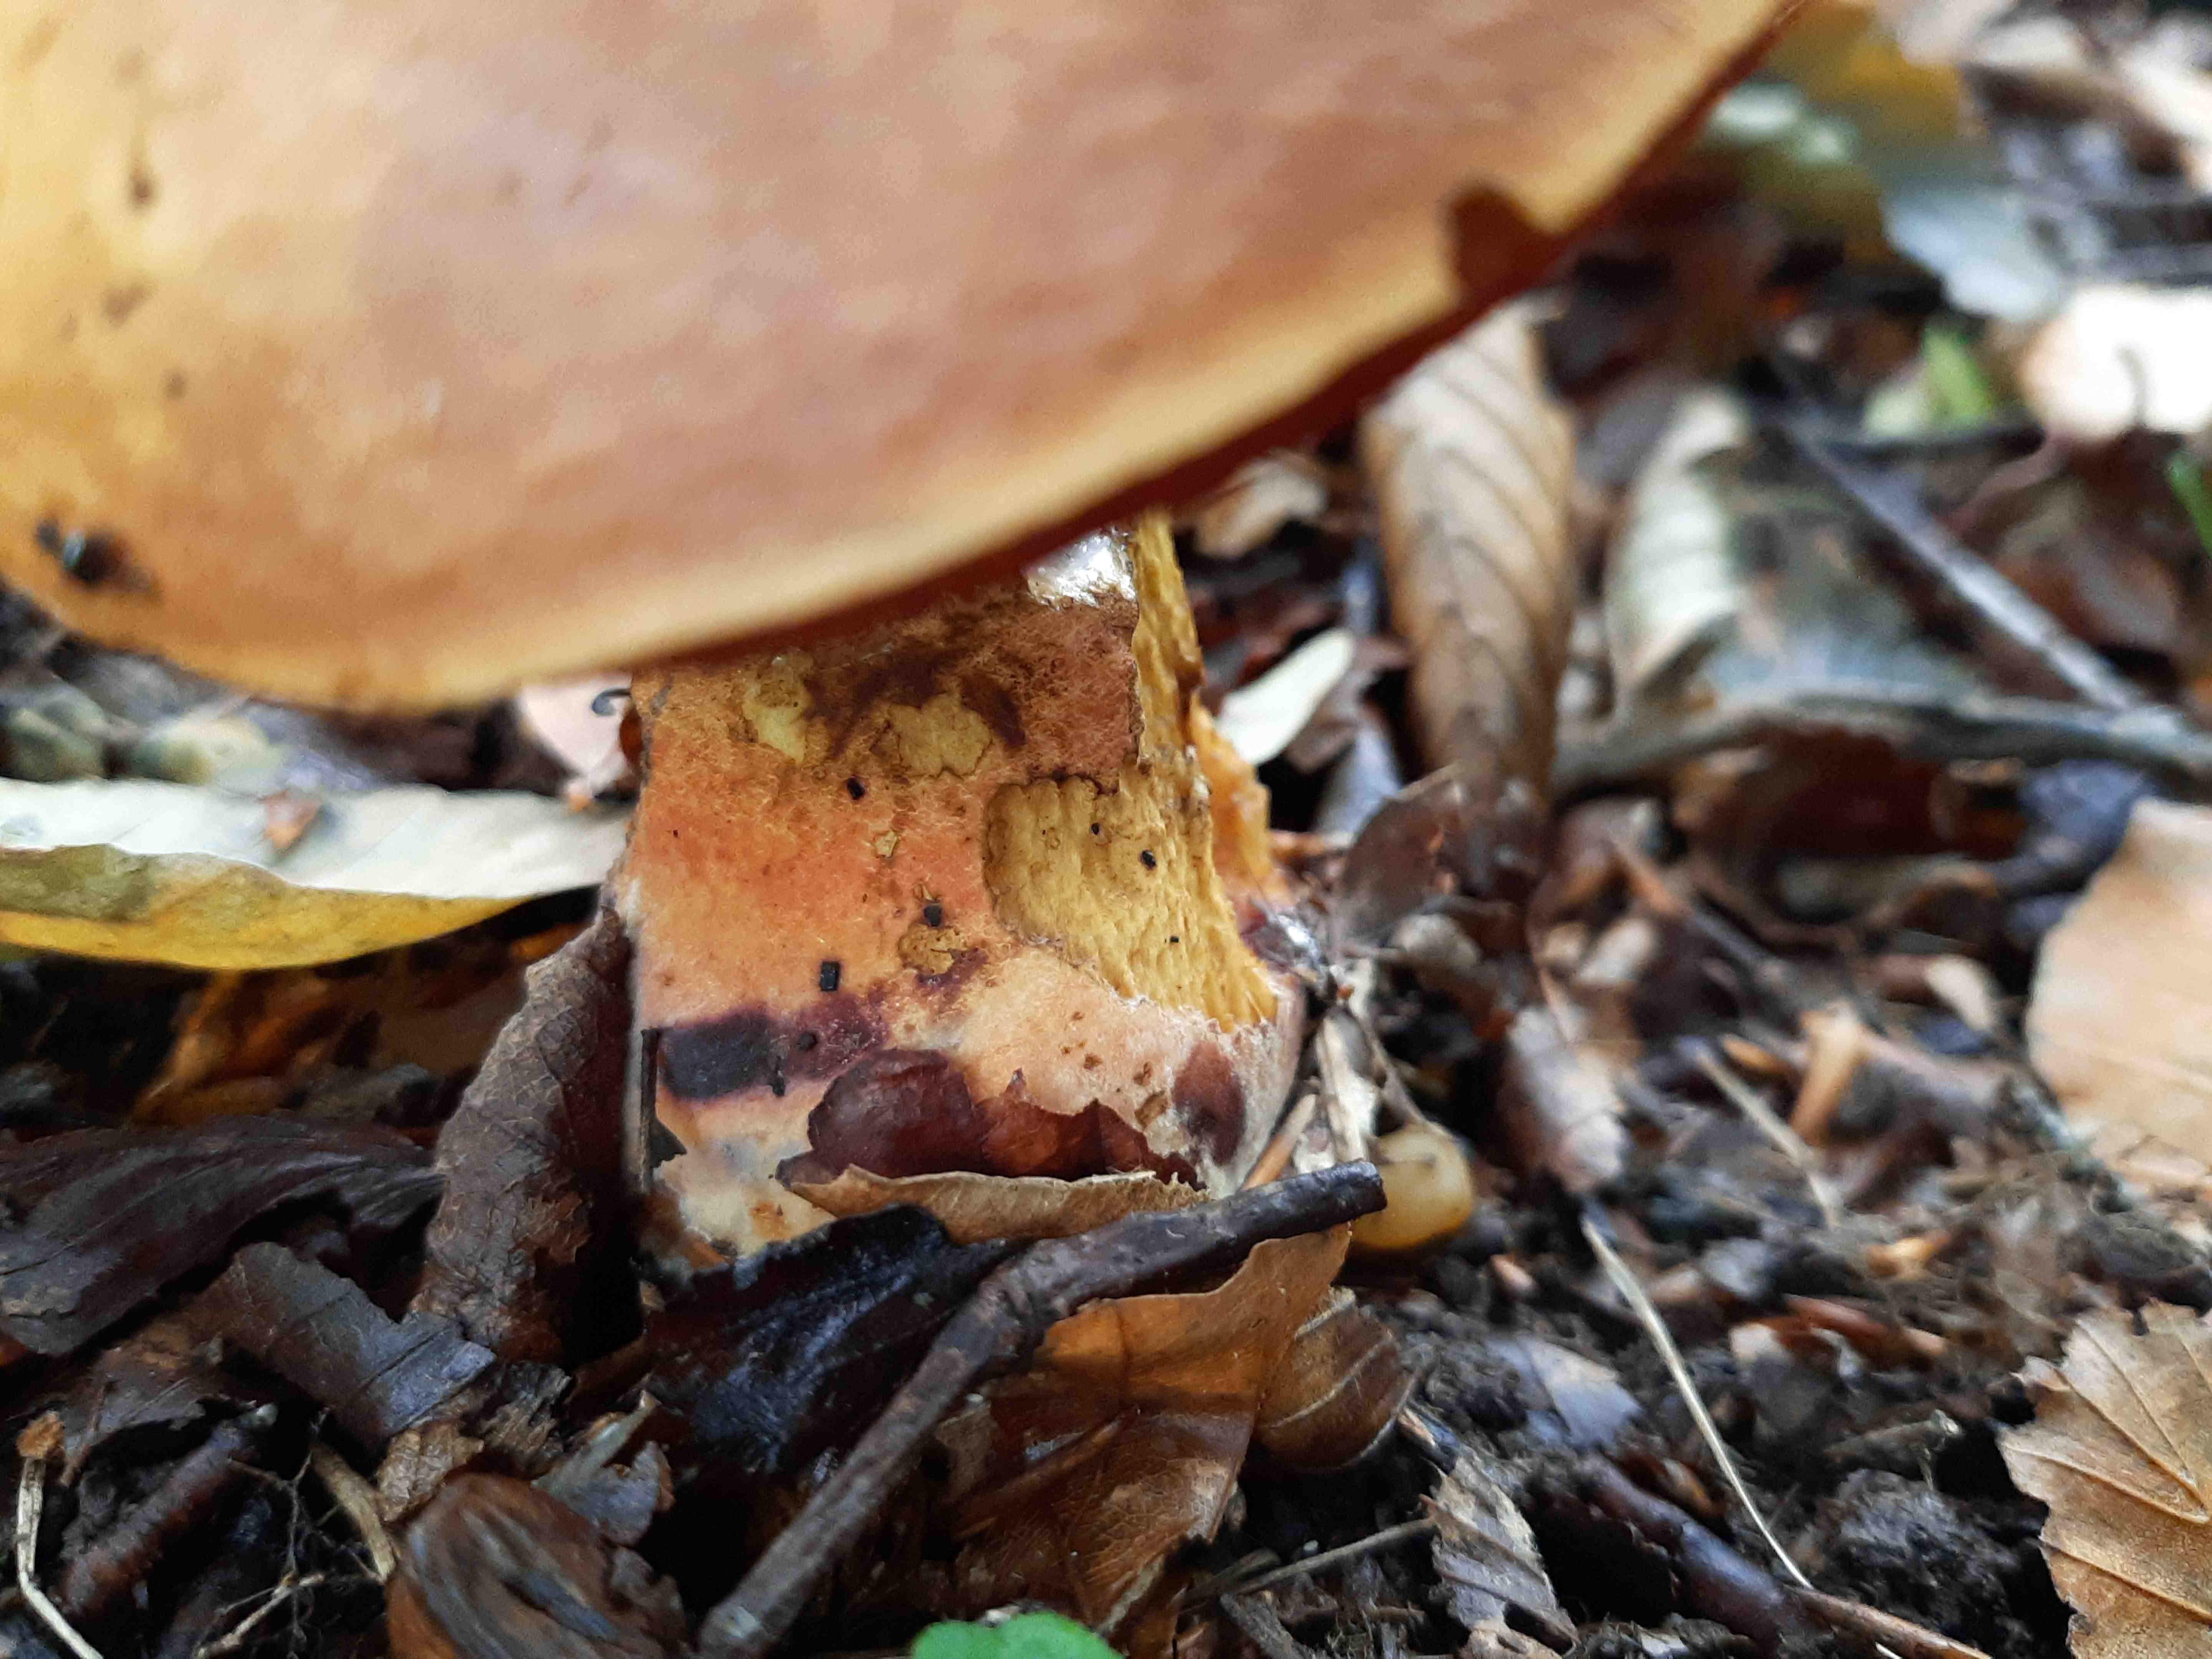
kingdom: Fungi
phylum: Basidiomycota
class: Agaricomycetes
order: Boletales
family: Boletaceae
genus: Neoboletus
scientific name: Neoboletus erythropus
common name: punktstokket indigorørhat
